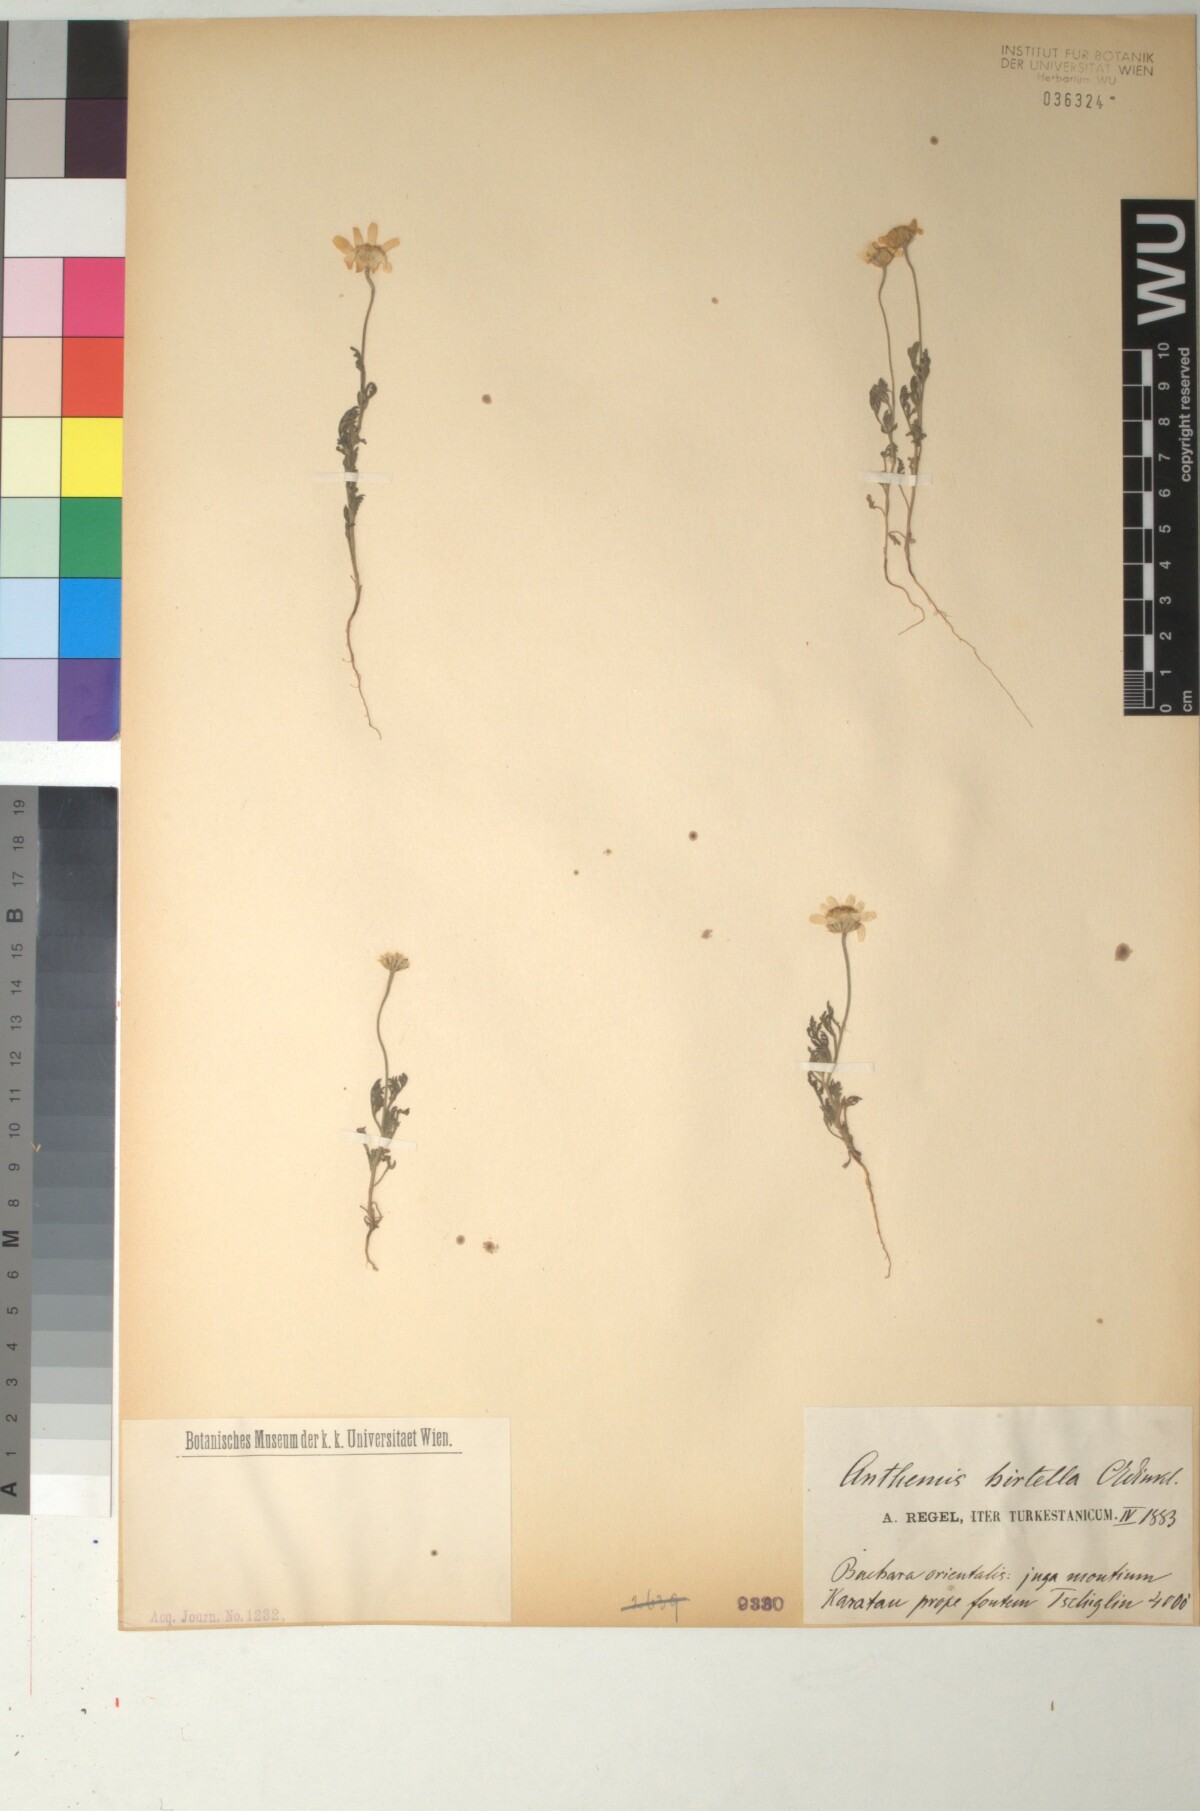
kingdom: Plantae
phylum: Tracheophyta
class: Magnoliopsida
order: Asterales
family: Asteraceae
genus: Anthemis
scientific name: Anthemis hirtella
